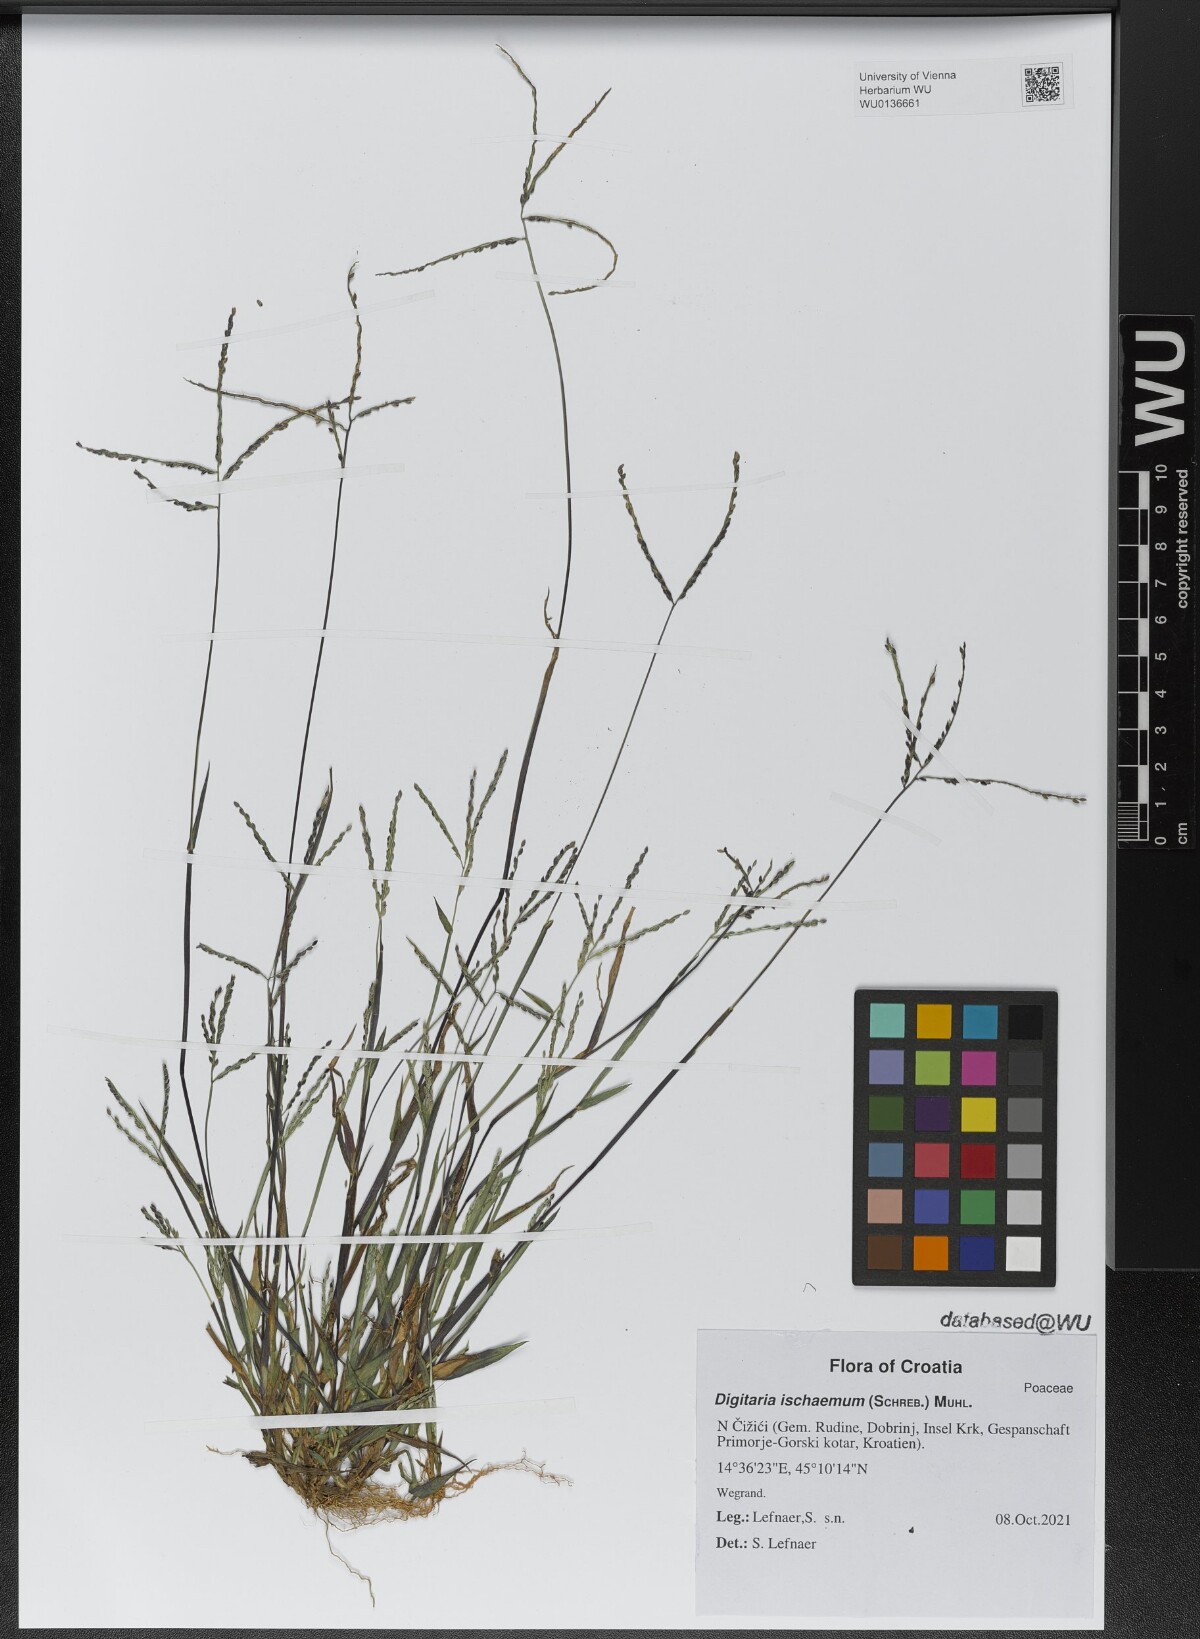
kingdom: Plantae
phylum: Tracheophyta
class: Liliopsida
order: Poales
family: Poaceae
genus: Digitaria
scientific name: Digitaria ischaemum
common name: Smooth crabgrass
